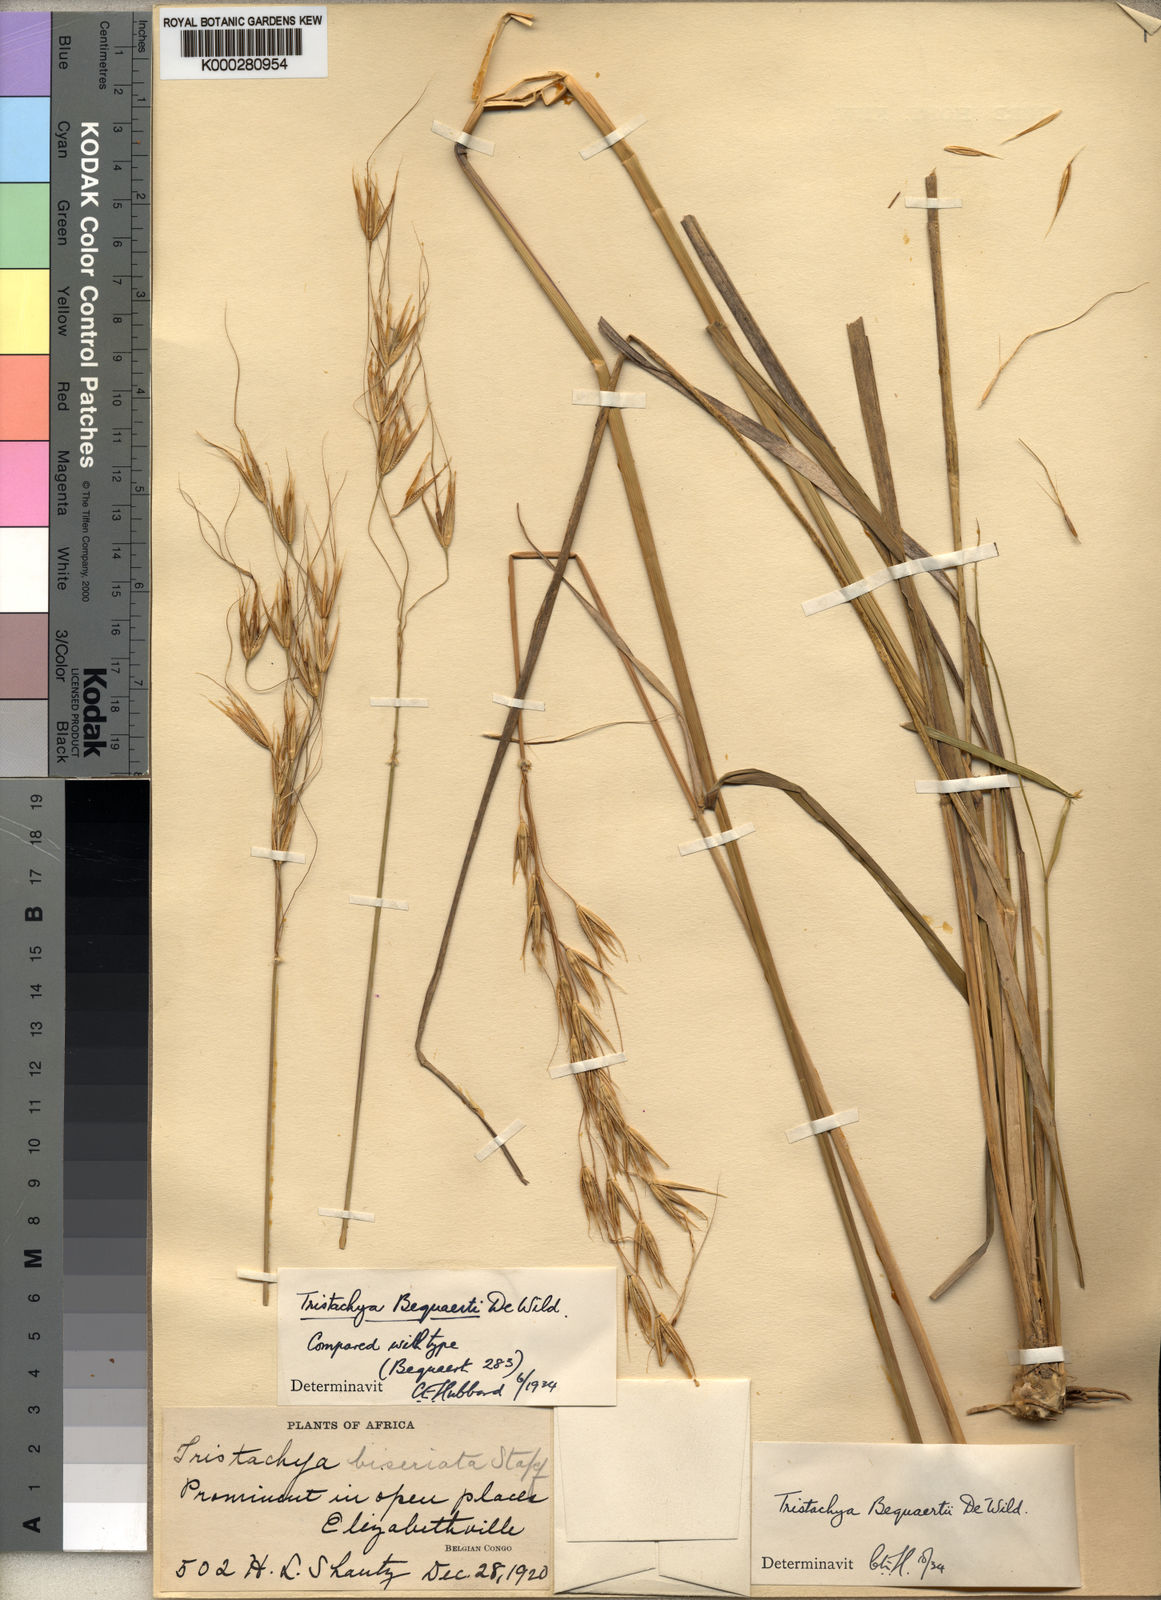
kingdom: Plantae
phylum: Tracheophyta
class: Liliopsida
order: Poales
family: Poaceae
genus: Tristachya
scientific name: Tristachya bequaertii
